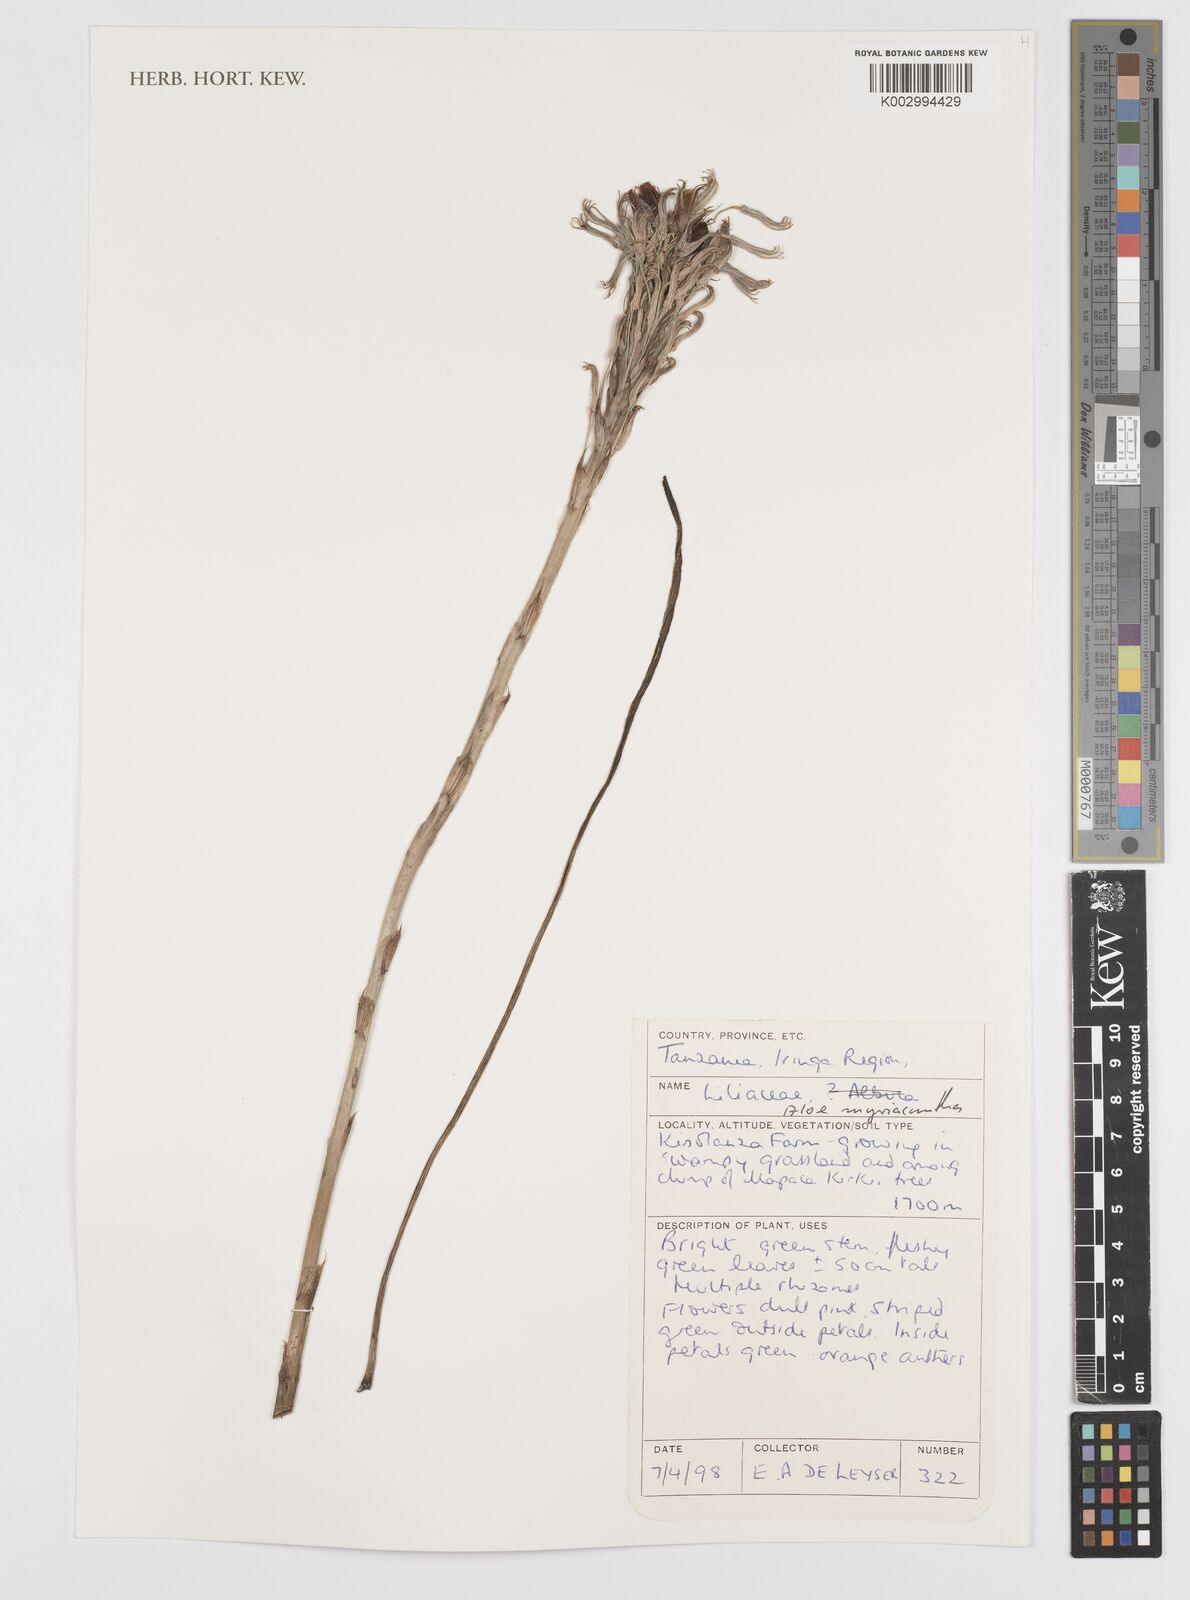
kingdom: Plantae
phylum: Tracheophyta
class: Liliopsida
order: Asparagales
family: Asphodelaceae
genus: Aloe
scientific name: Aloe myriacantha
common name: Grass aloe
